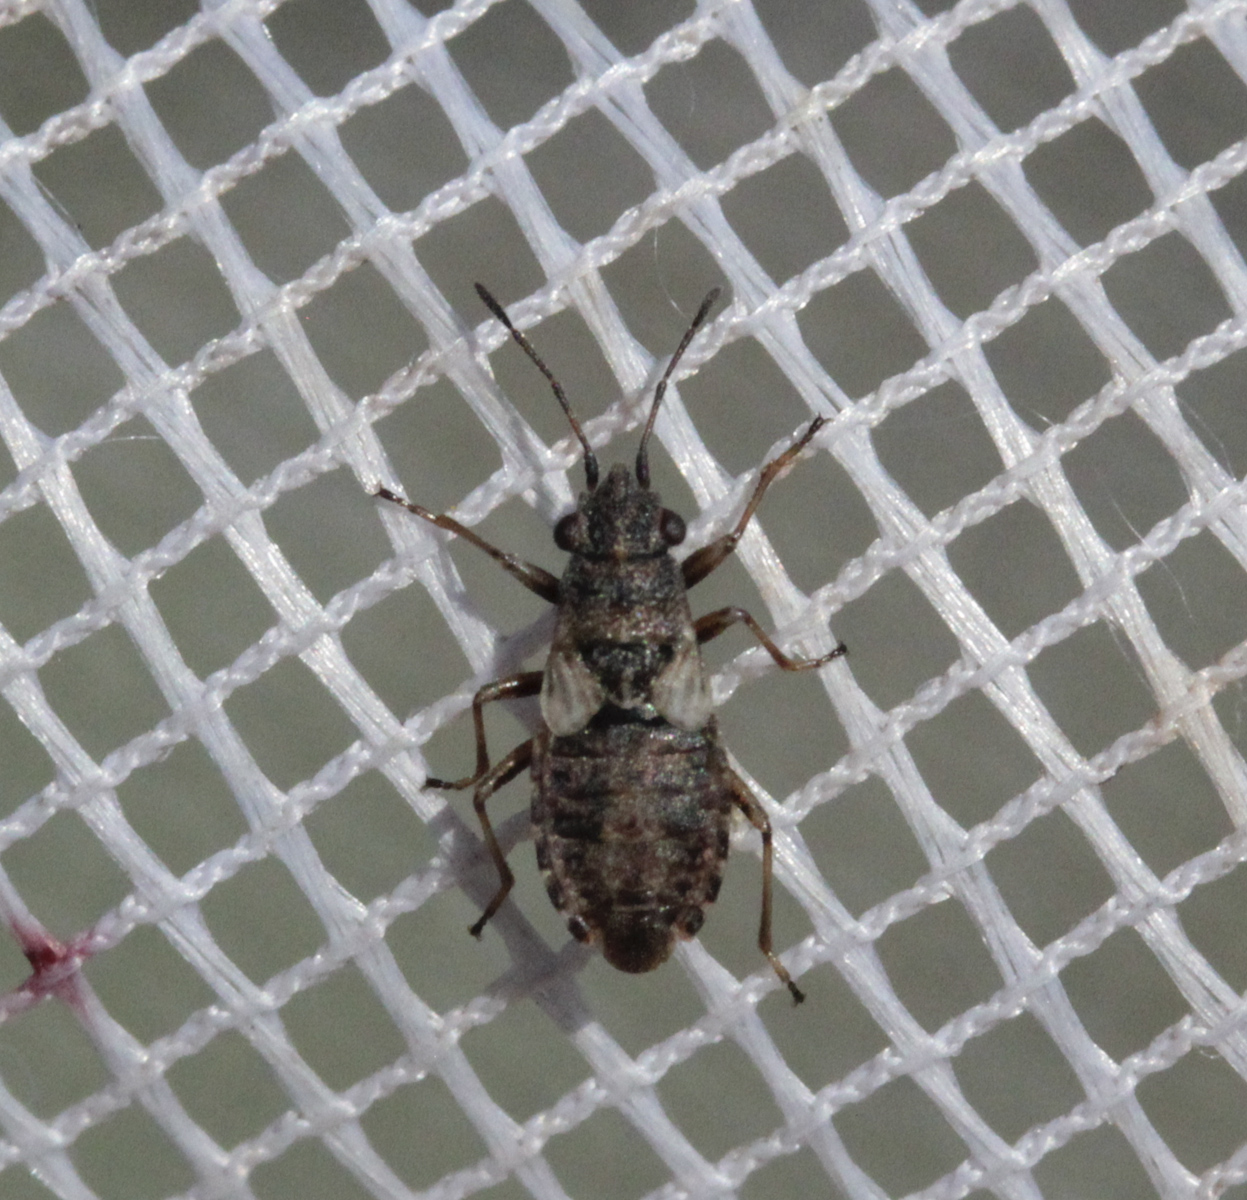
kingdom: Animalia
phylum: Arthropoda
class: Insecta
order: Hemiptera
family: Lygaeidae
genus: Nithecus
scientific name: Nithecus jacobaeae
